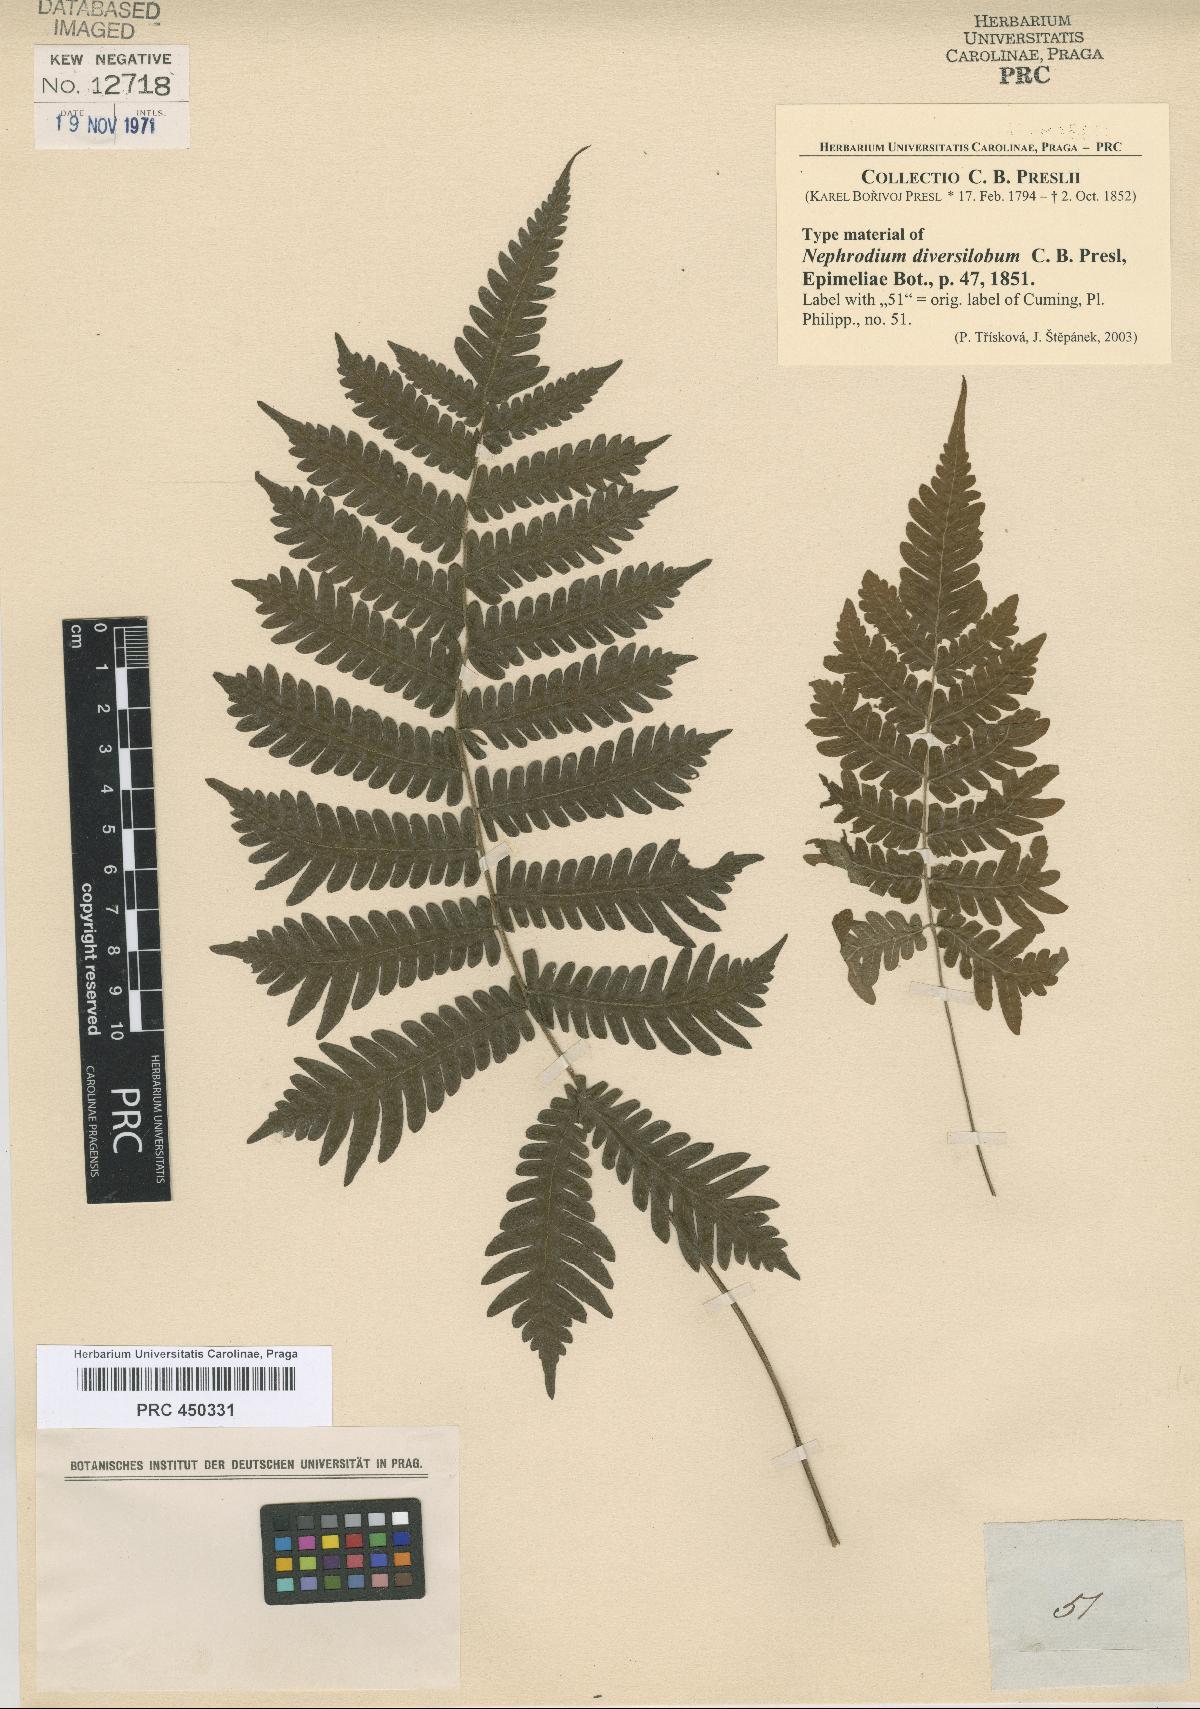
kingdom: Plantae
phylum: Tracheophyta
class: Polypodiopsida
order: Polypodiales
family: Thelypteridaceae
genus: Sphaerostephanos
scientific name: Sphaerostephanos diversilobus
